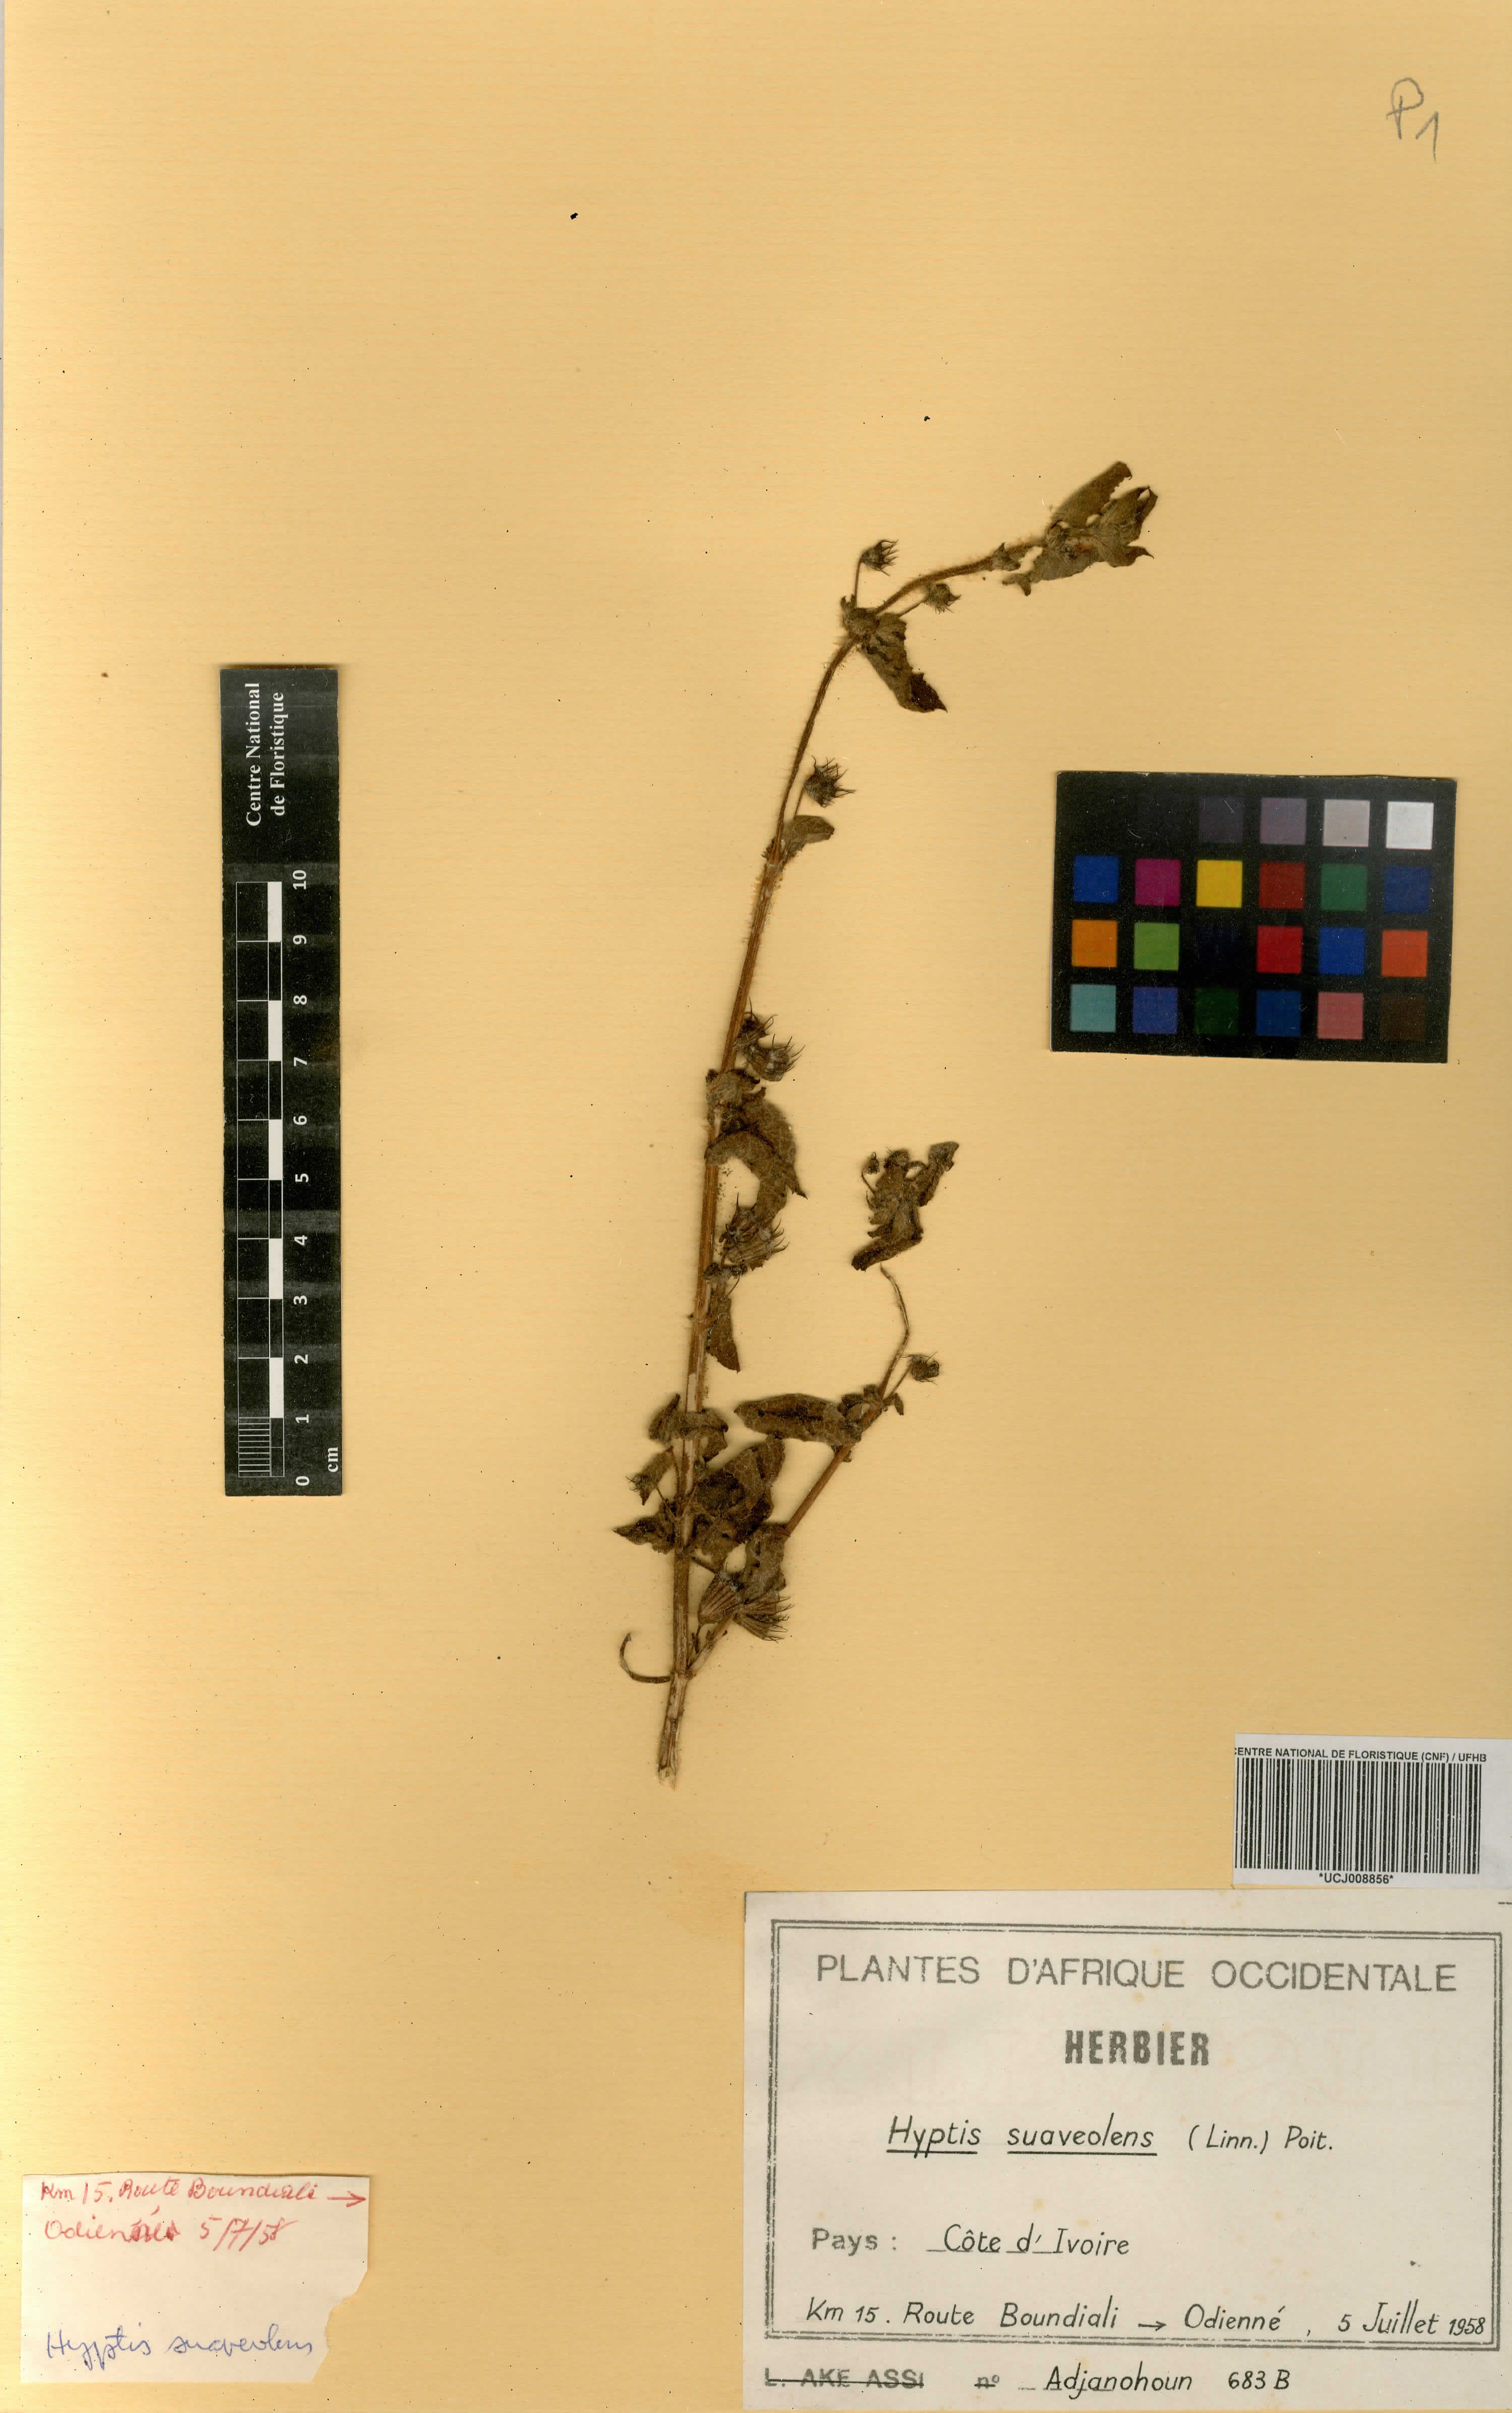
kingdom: Plantae
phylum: Tracheophyta
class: Magnoliopsida
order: Lamiales
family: Lamiaceae
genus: Mesosphaerum
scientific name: Mesosphaerum suaveolens
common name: Pignut
